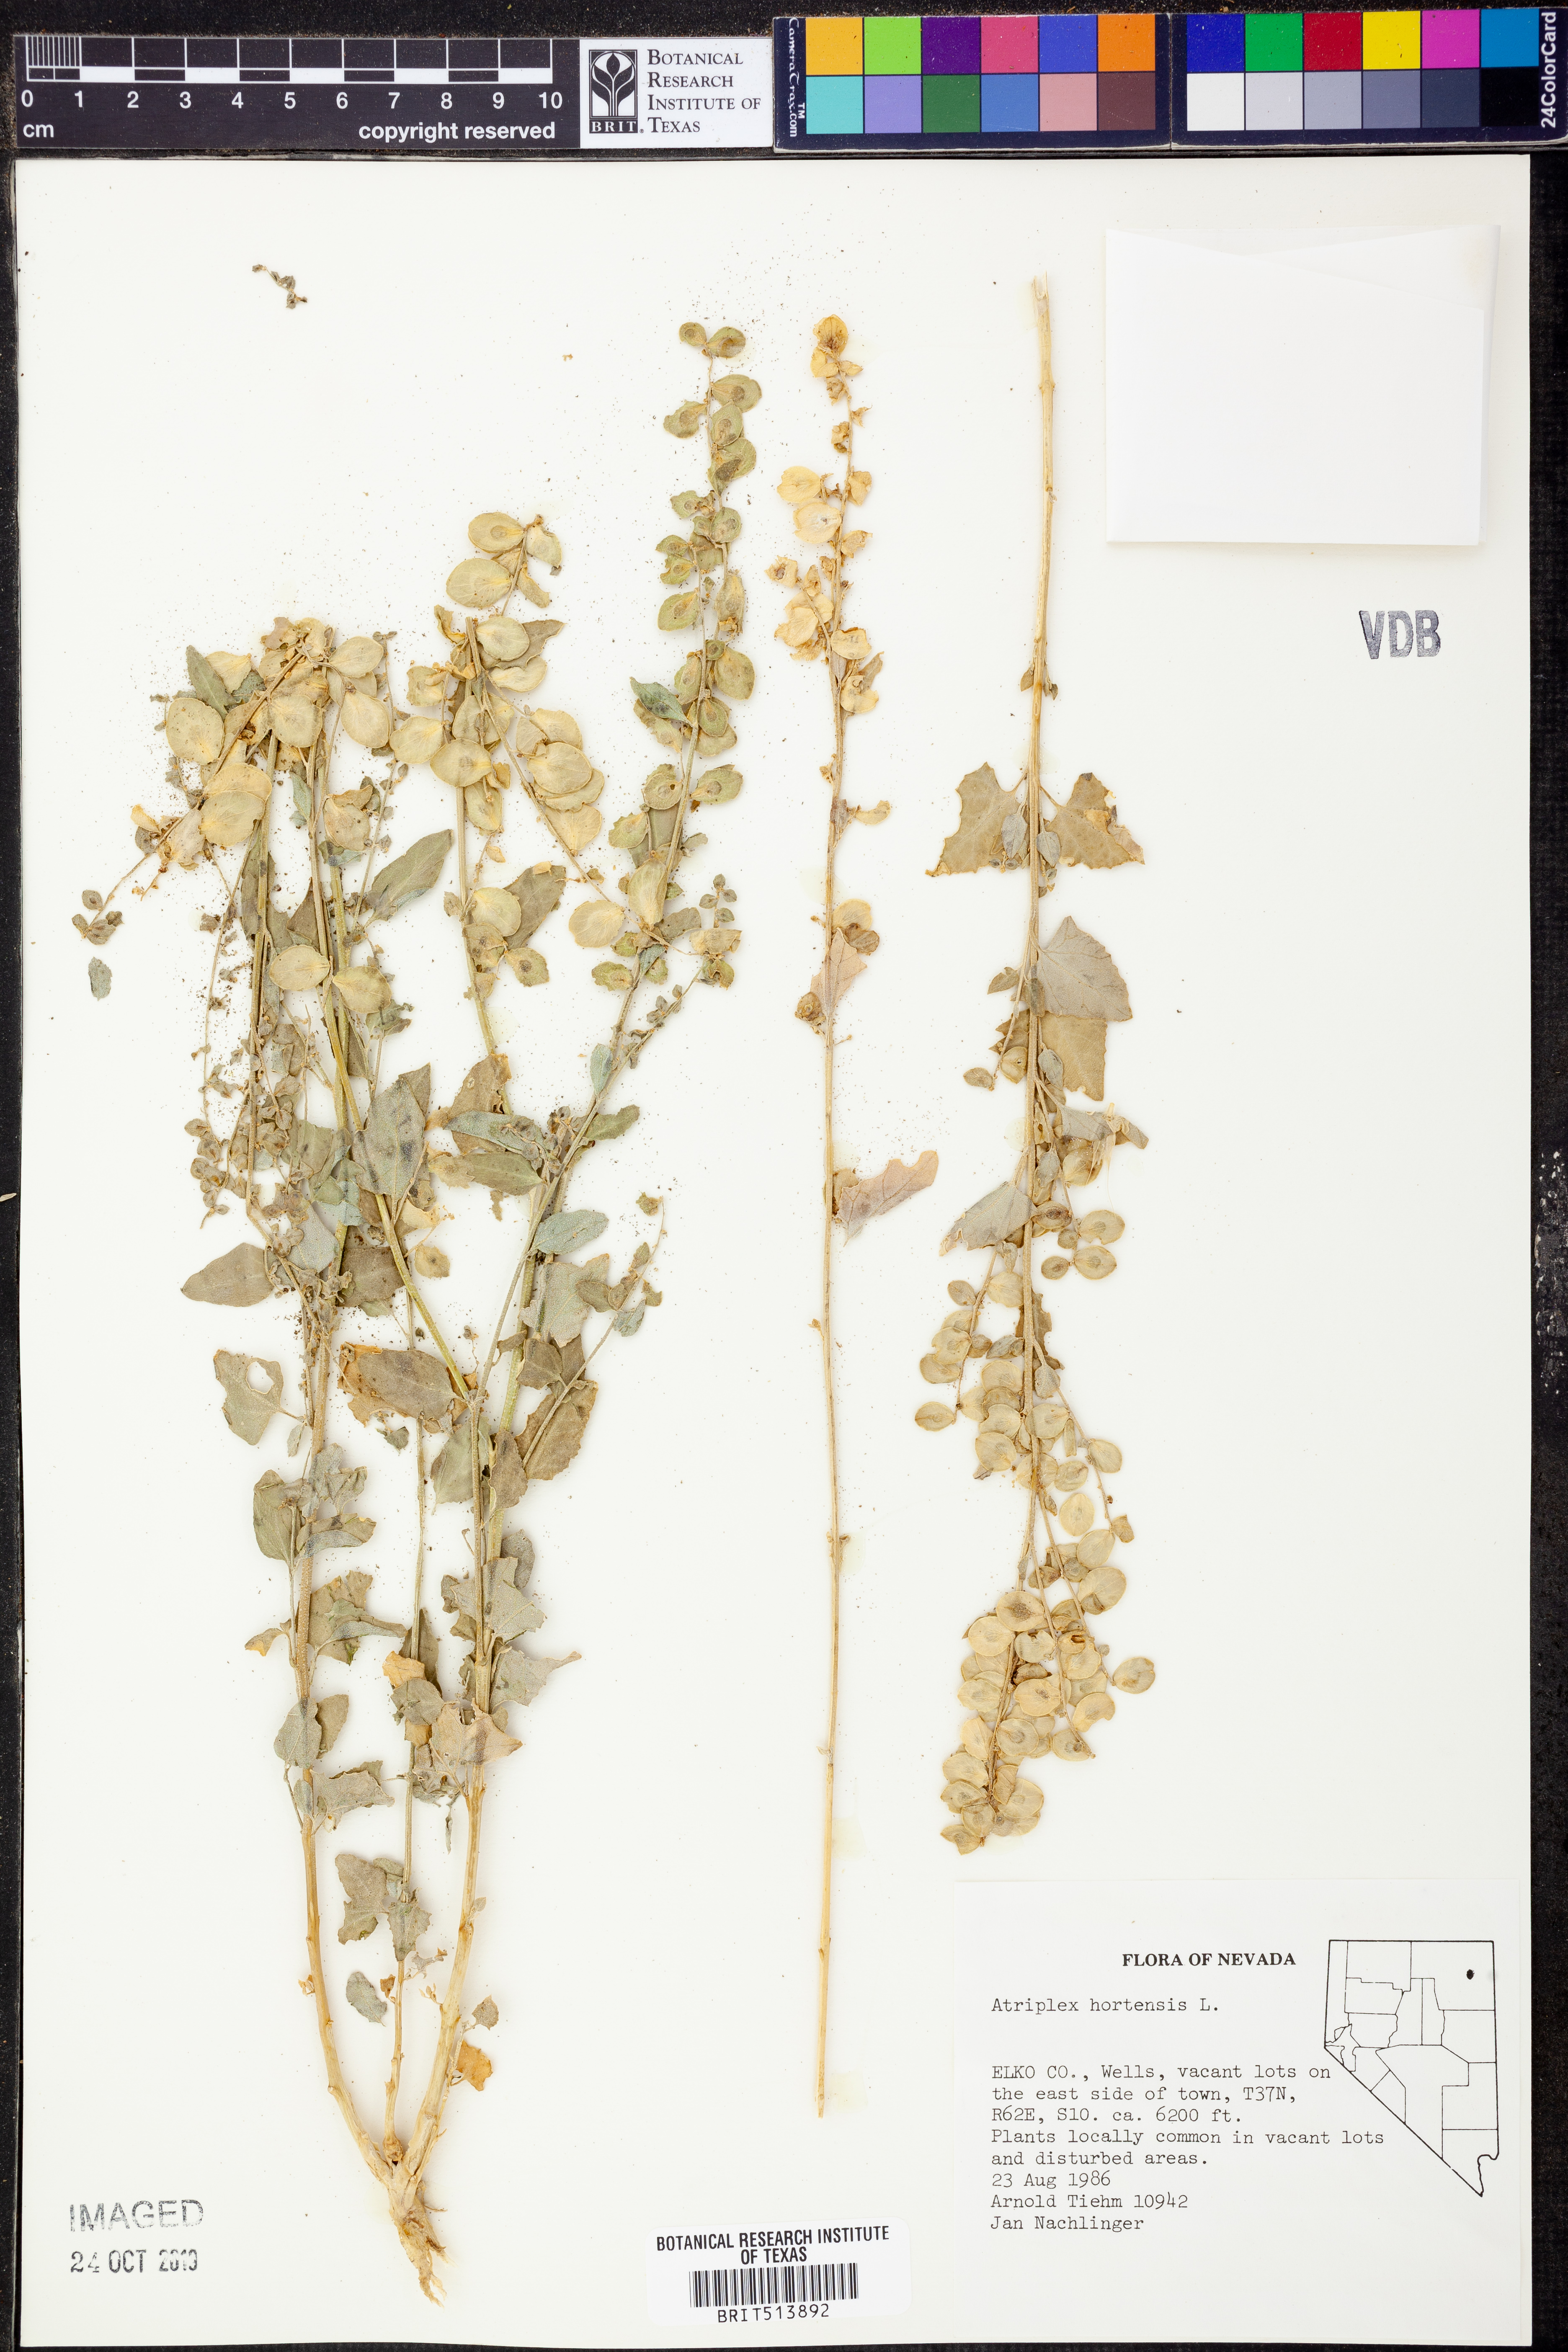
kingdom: Plantae
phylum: Tracheophyta
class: Magnoliopsida
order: Caryophyllales
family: Amaranthaceae
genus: Atriplex
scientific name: Atriplex hortensis
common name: Garden orache
